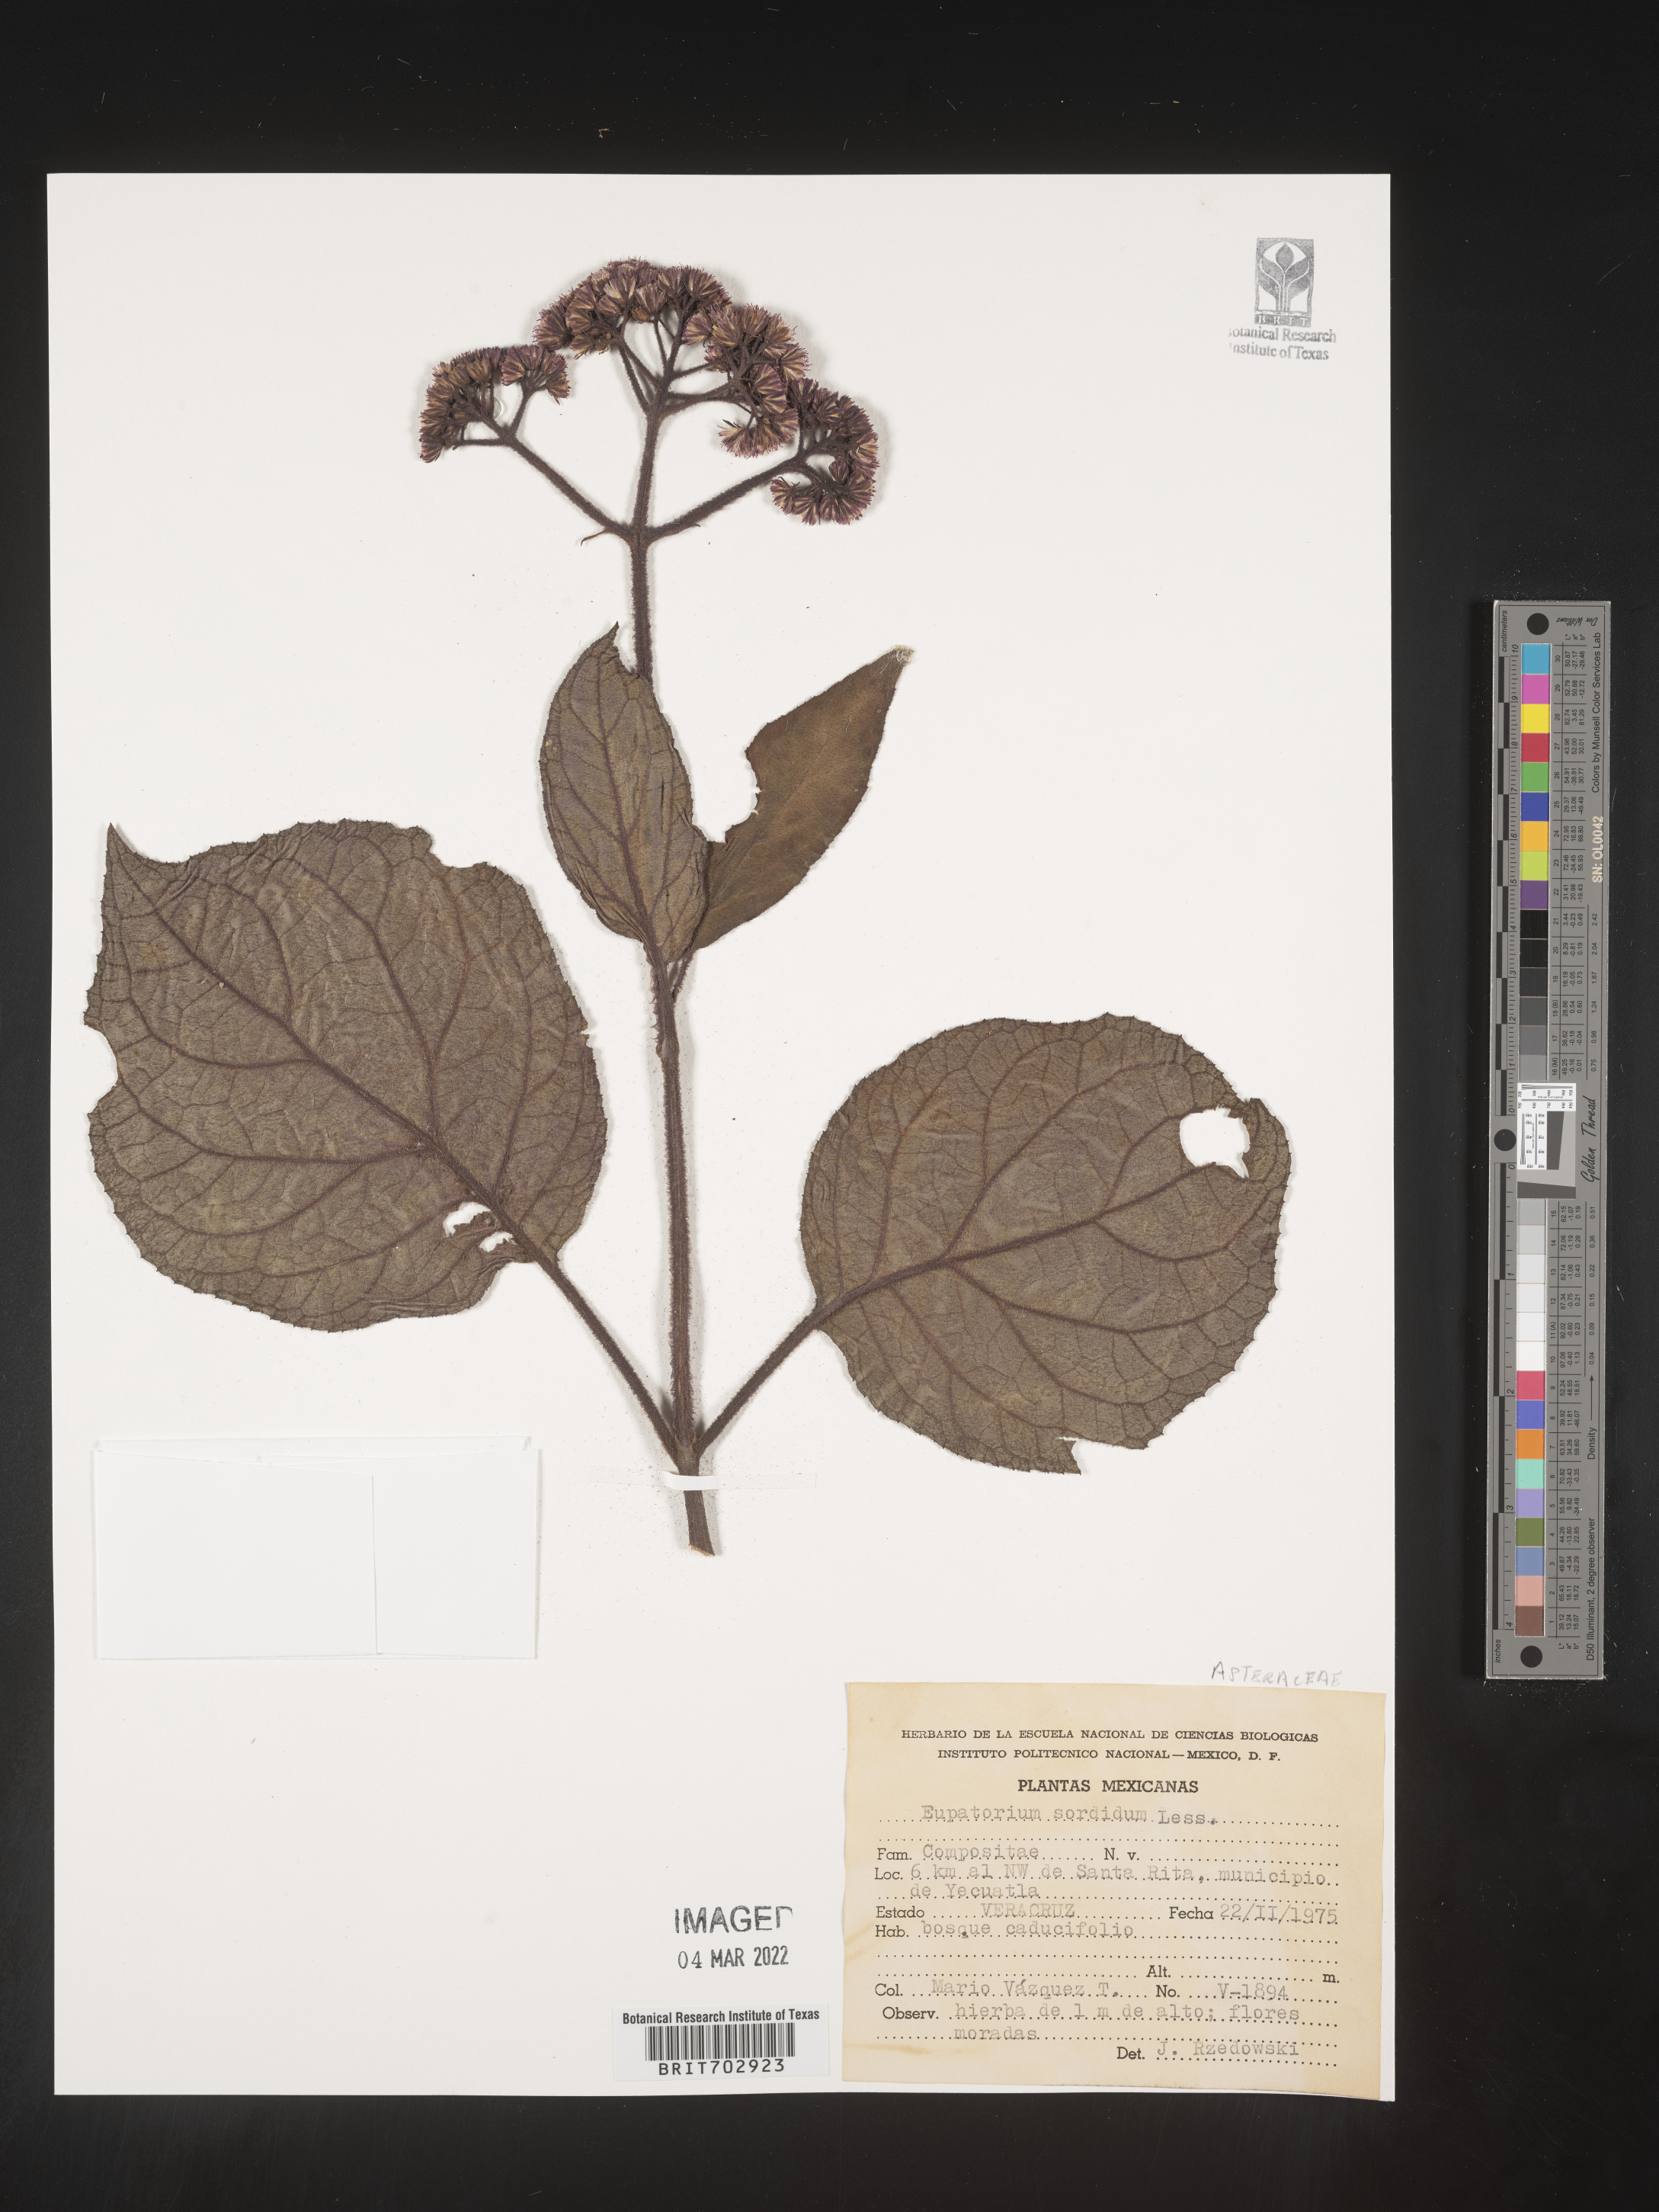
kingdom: Plantae
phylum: Tracheophyta
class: Magnoliopsida
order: Asterales
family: Asteraceae
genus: Eupatorium
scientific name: Eupatorium
